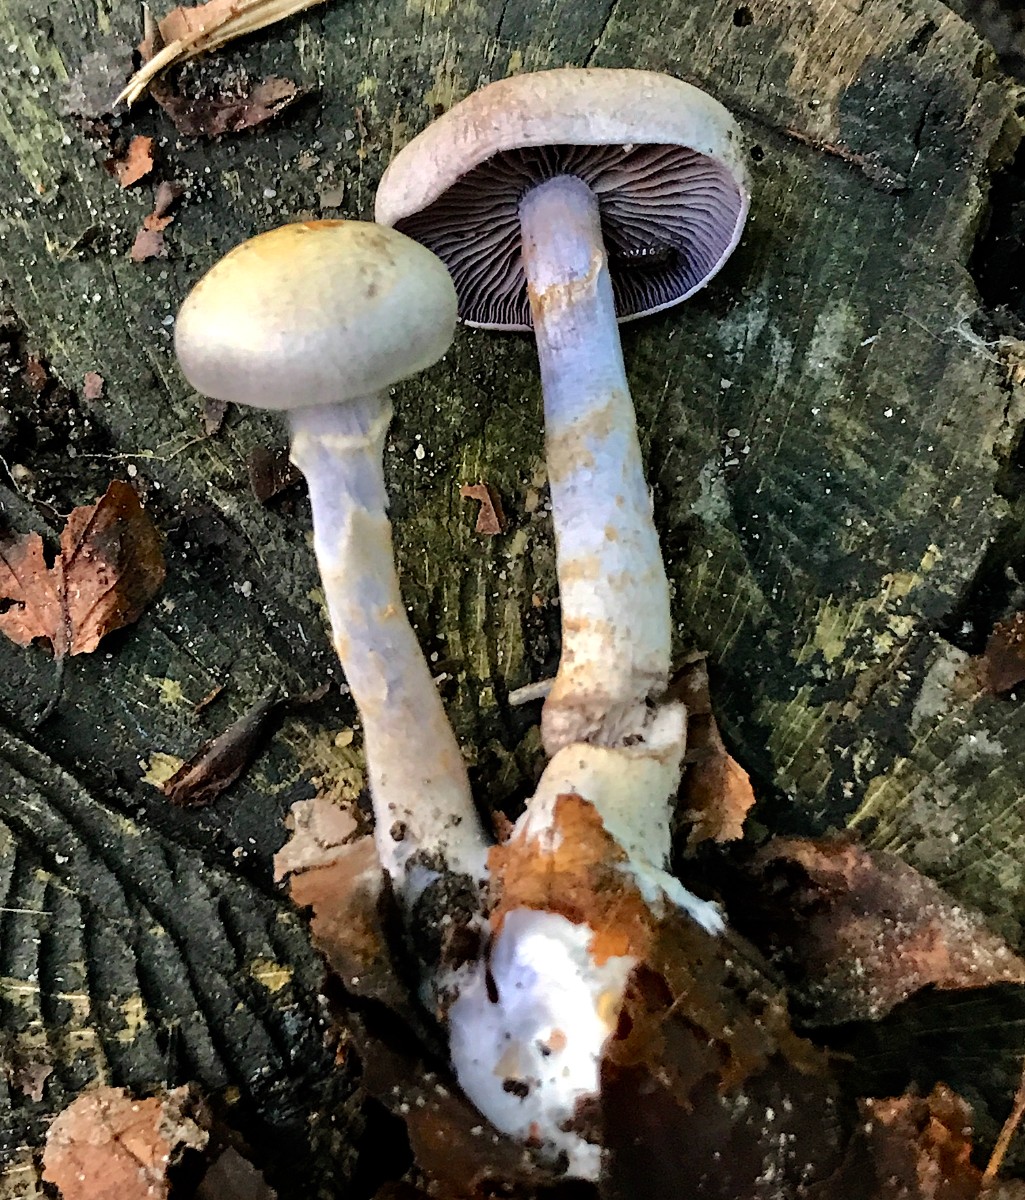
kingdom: Fungi
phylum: Basidiomycota
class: Agaricomycetes
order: Agaricales
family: Cortinariaceae
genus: Cortinarius
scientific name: Cortinarius
